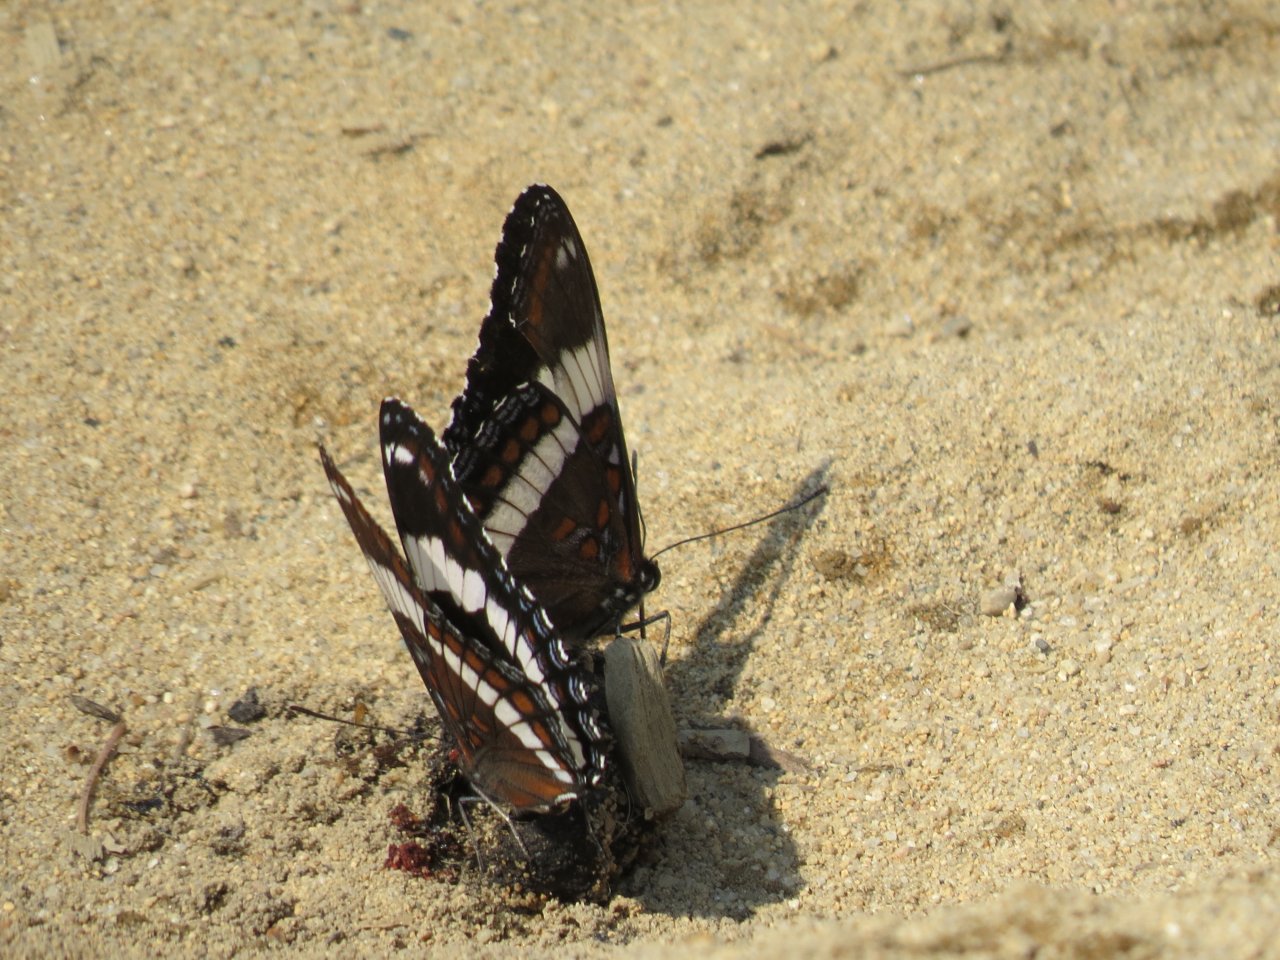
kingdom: Animalia
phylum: Arthropoda
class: Insecta
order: Lepidoptera
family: Nymphalidae
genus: Limenitis
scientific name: Limenitis arthemis
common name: Red-spotted Admiral
